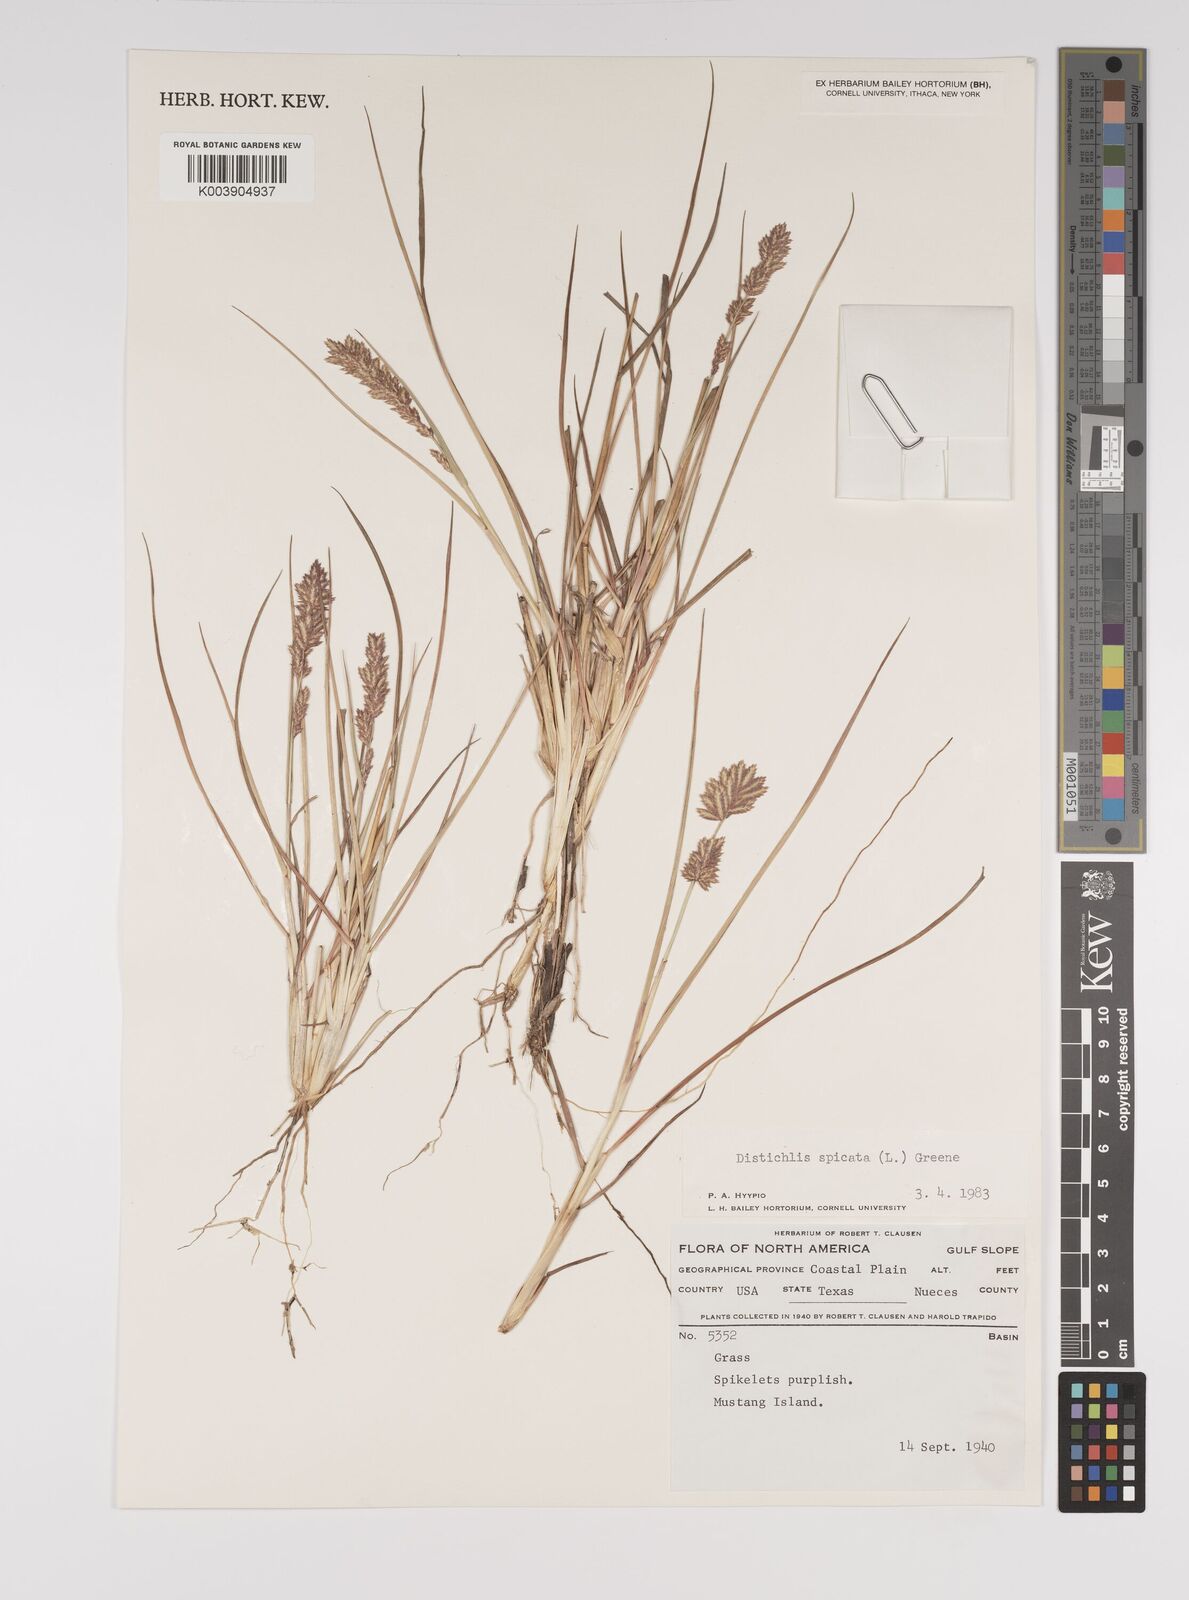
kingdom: Plantae
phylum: Tracheophyta
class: Liliopsida
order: Poales
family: Poaceae
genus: Distichlis
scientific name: Distichlis spicata
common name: Saltgrass
